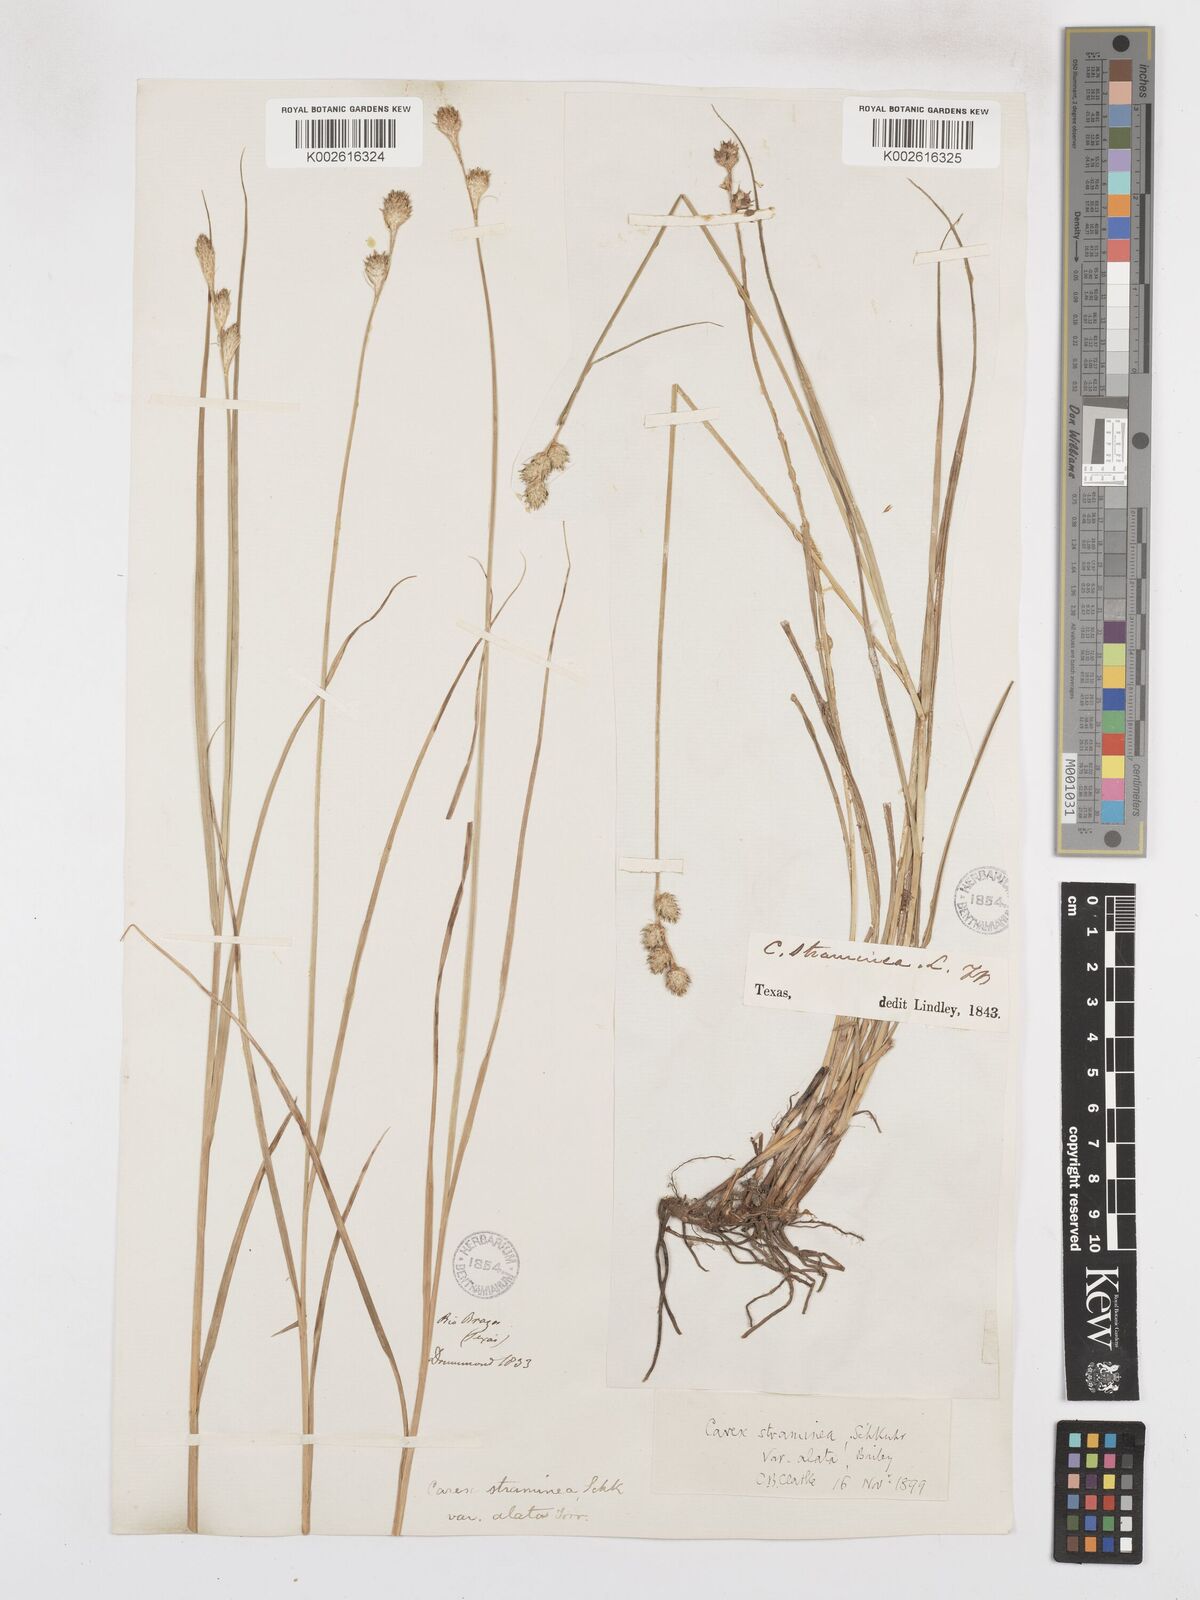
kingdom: Plantae
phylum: Tracheophyta
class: Liliopsida
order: Poales
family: Cyperaceae
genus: Carex
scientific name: Carex alata
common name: Broad-winged sedge
